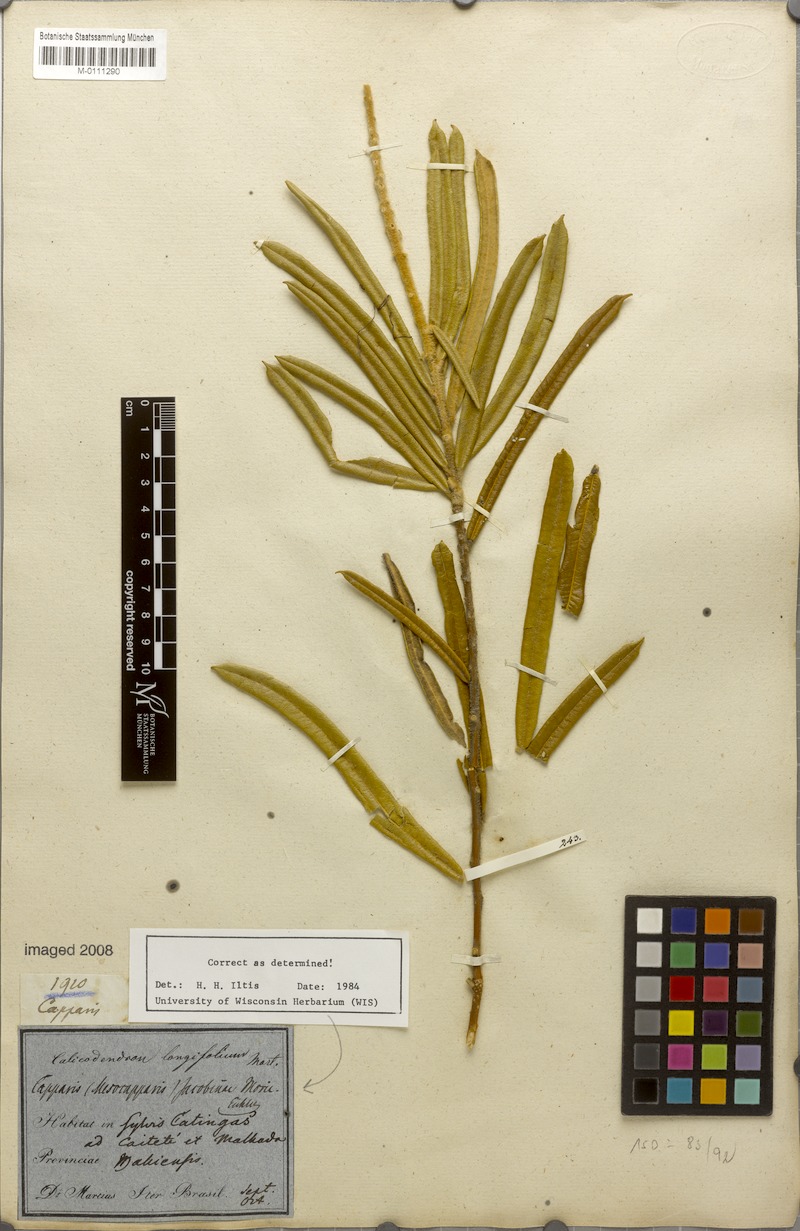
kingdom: Plantae
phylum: Tracheophyta
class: Magnoliopsida
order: Brassicales
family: Capparaceae
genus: Neocalyptrocalyx
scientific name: Neocalyptrocalyx longifolium
